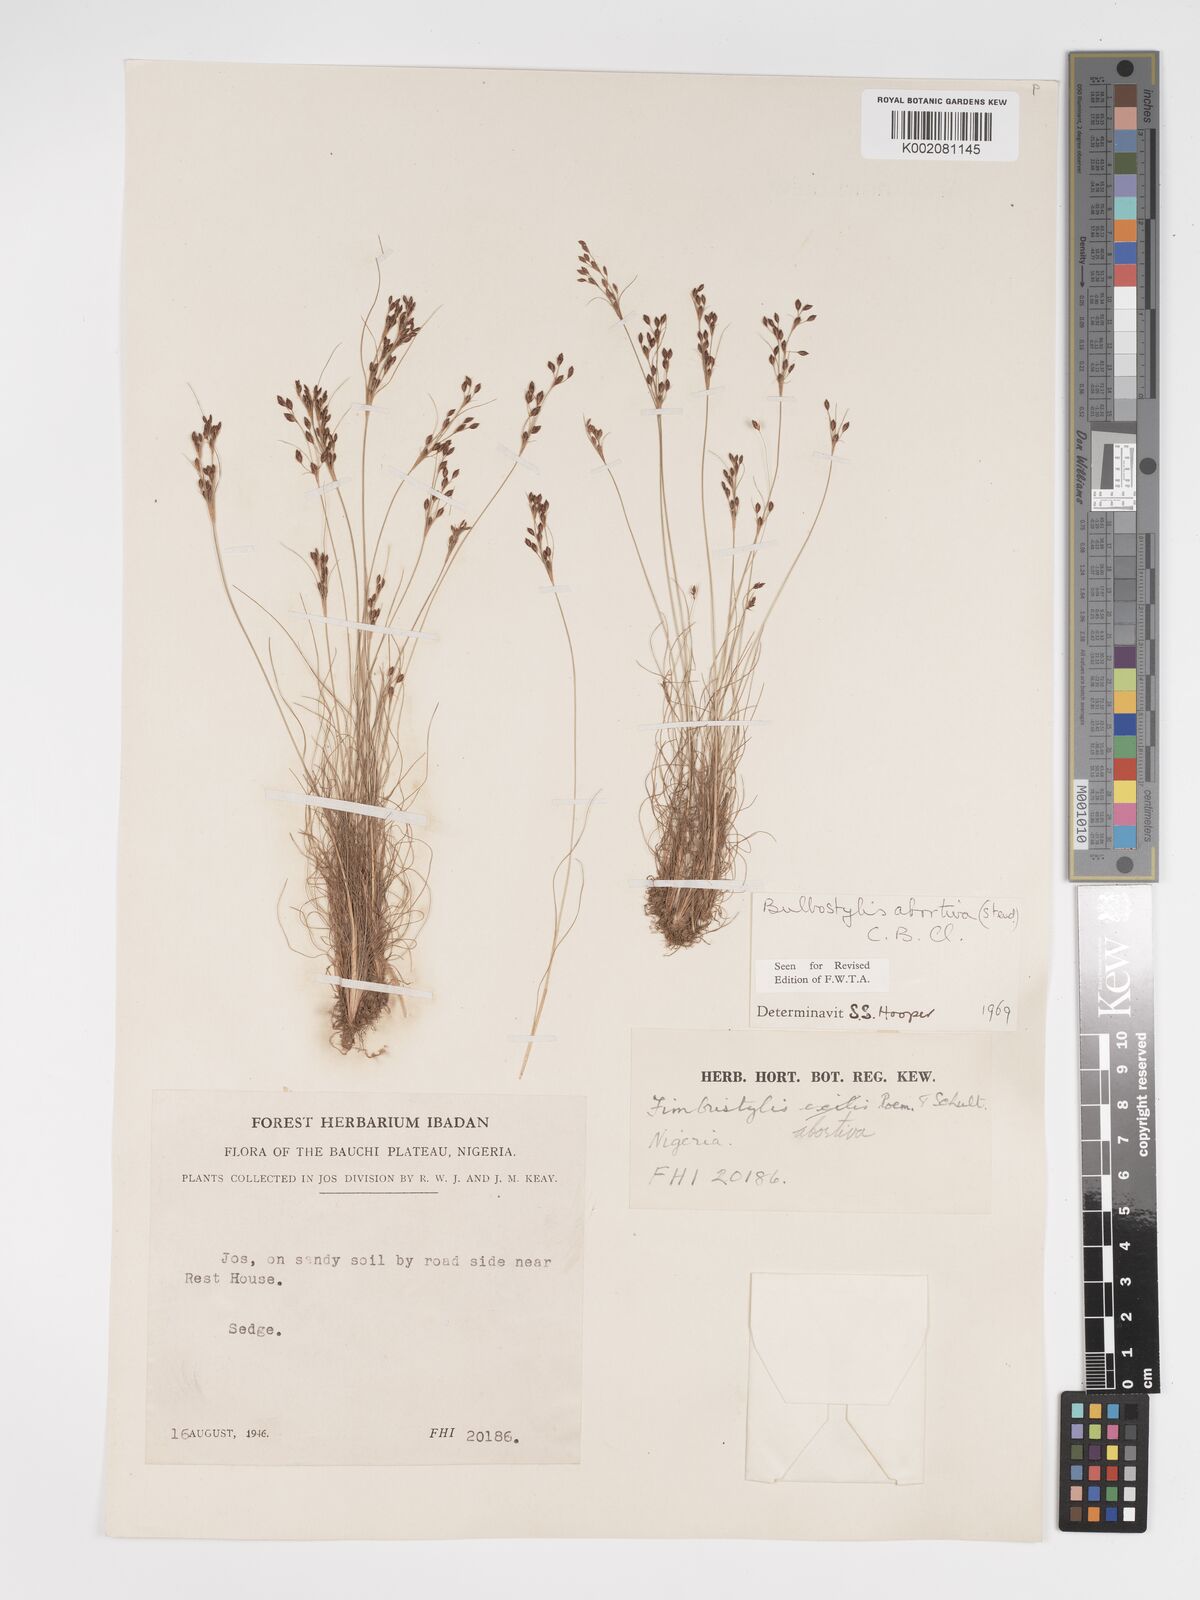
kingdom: Plantae
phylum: Tracheophyta
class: Liliopsida
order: Poales
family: Cyperaceae
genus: Bulbostylis
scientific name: Bulbostylis abortiva
